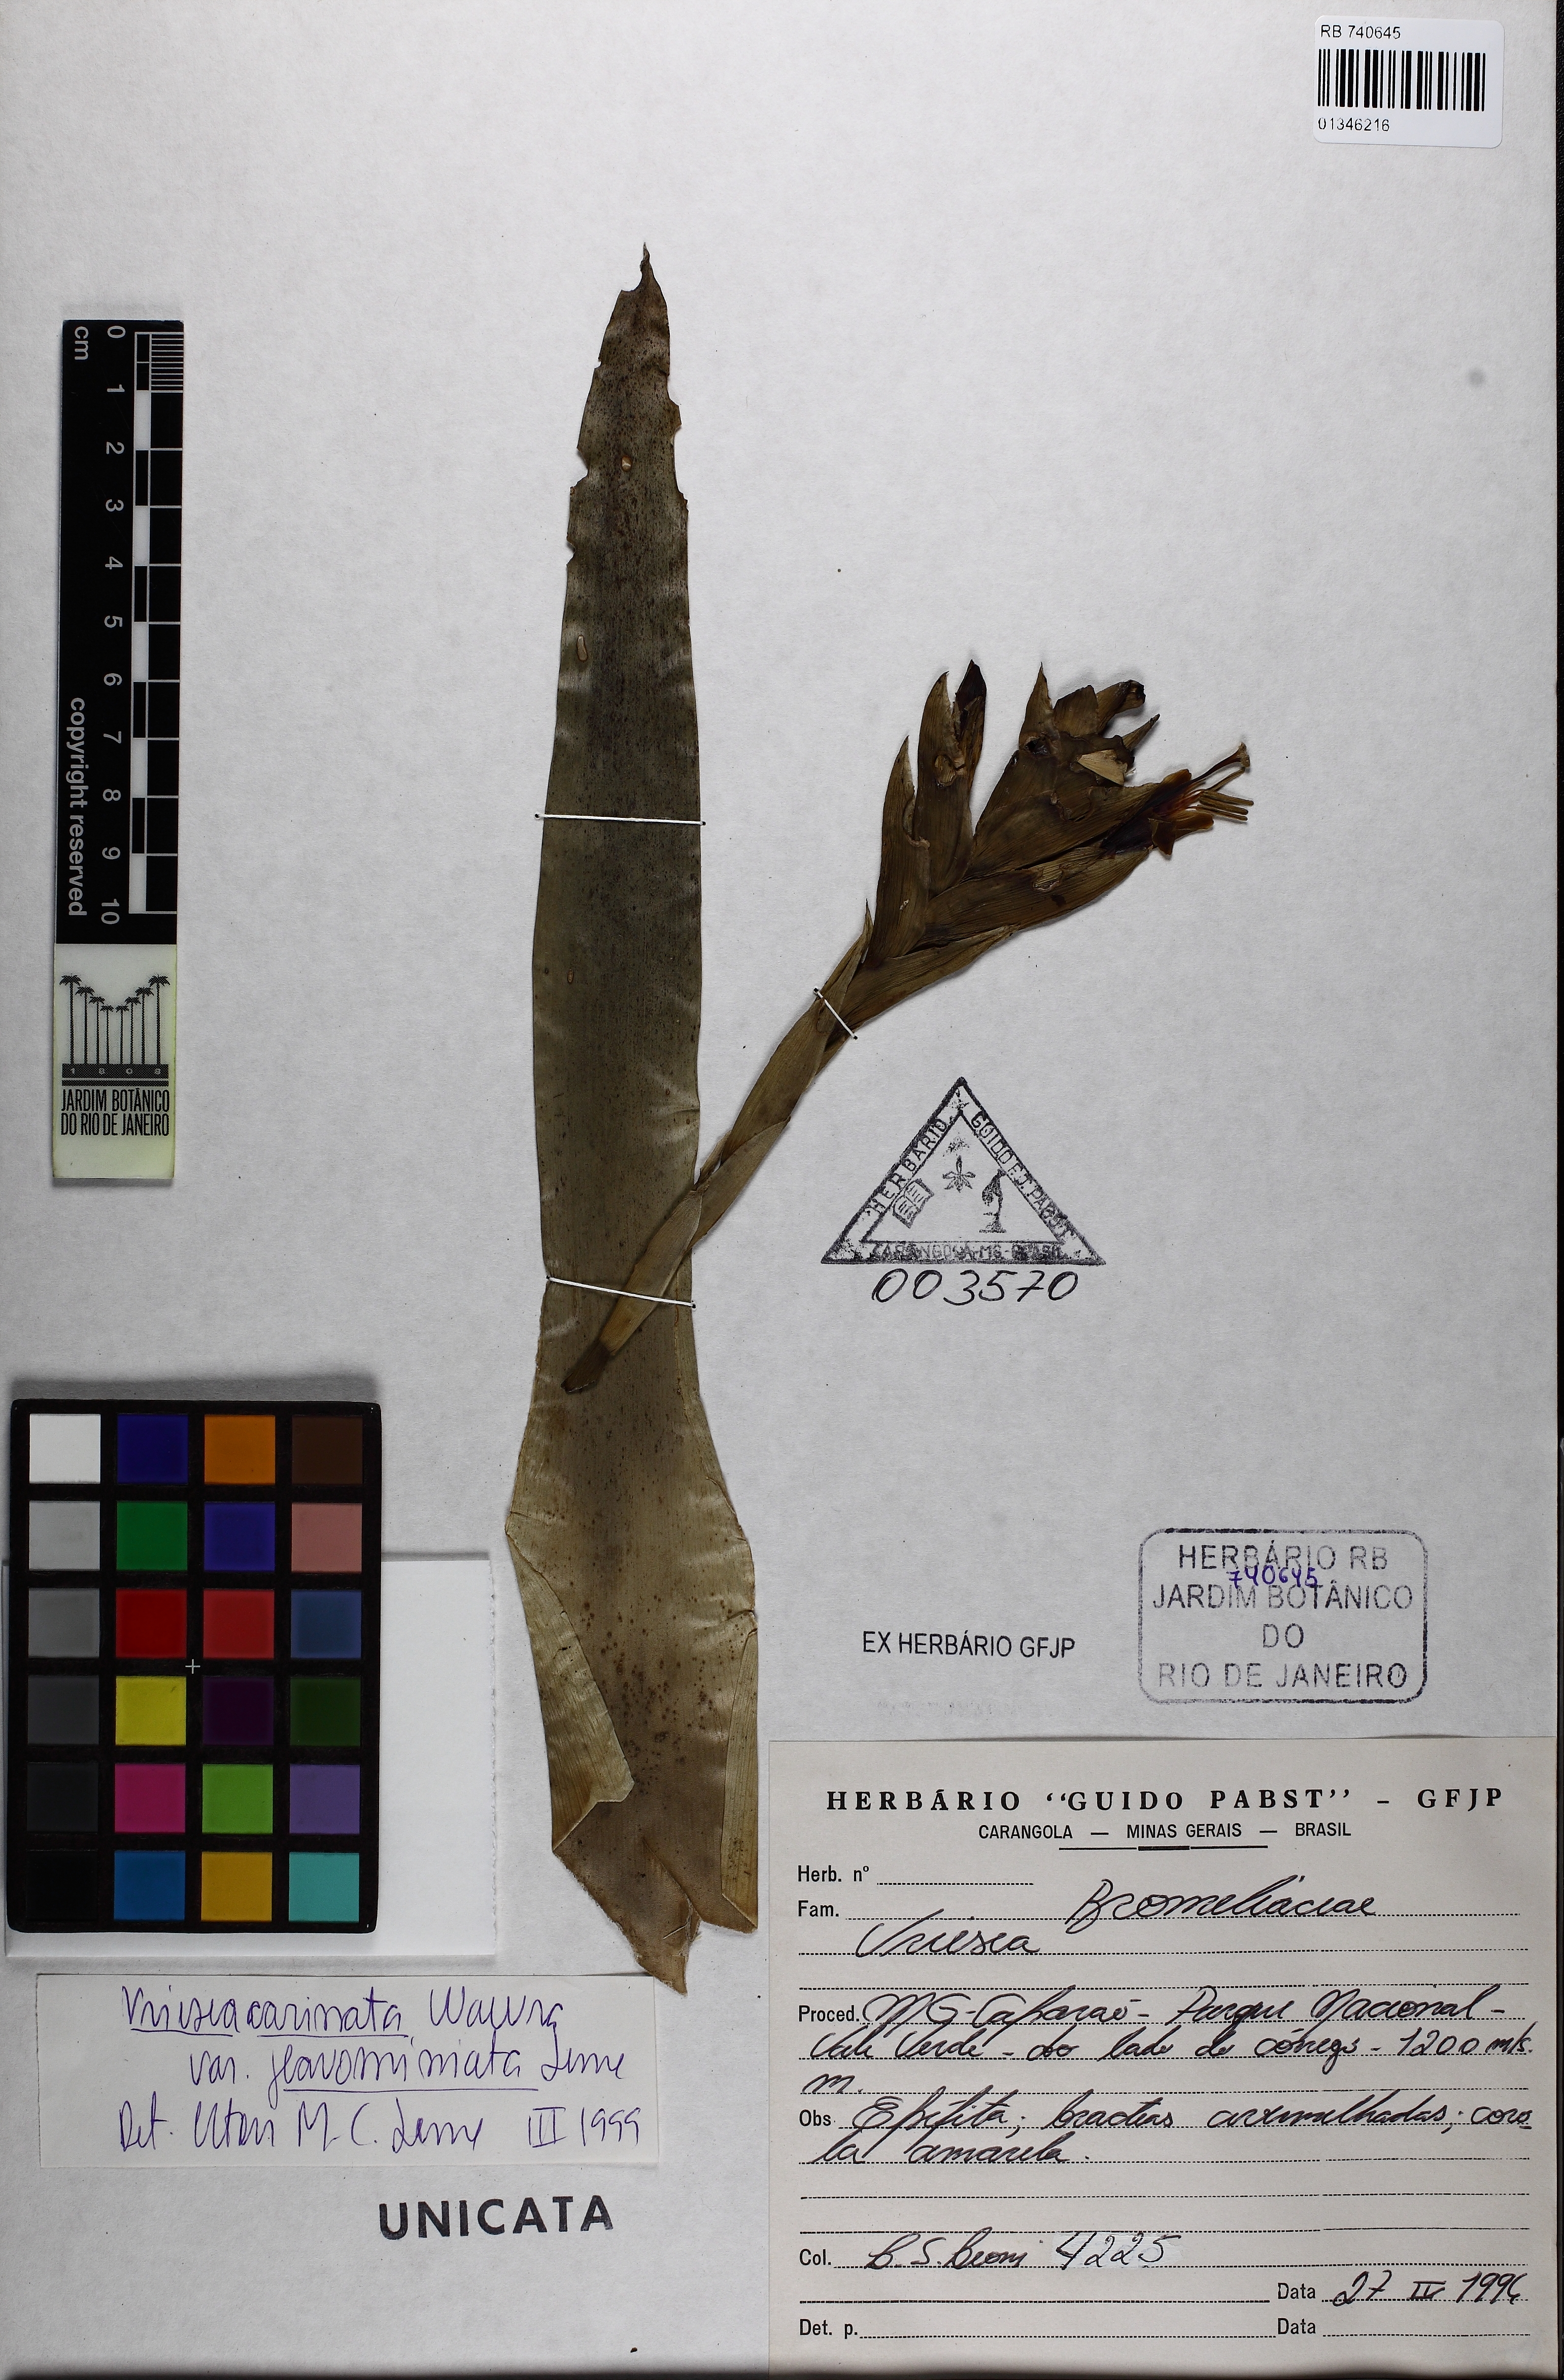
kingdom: Plantae
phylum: Tracheophyta
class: Liliopsida
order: Poales
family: Bromeliaceae
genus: Vriesea
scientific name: Vriesea carinata
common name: Lobster-claws
